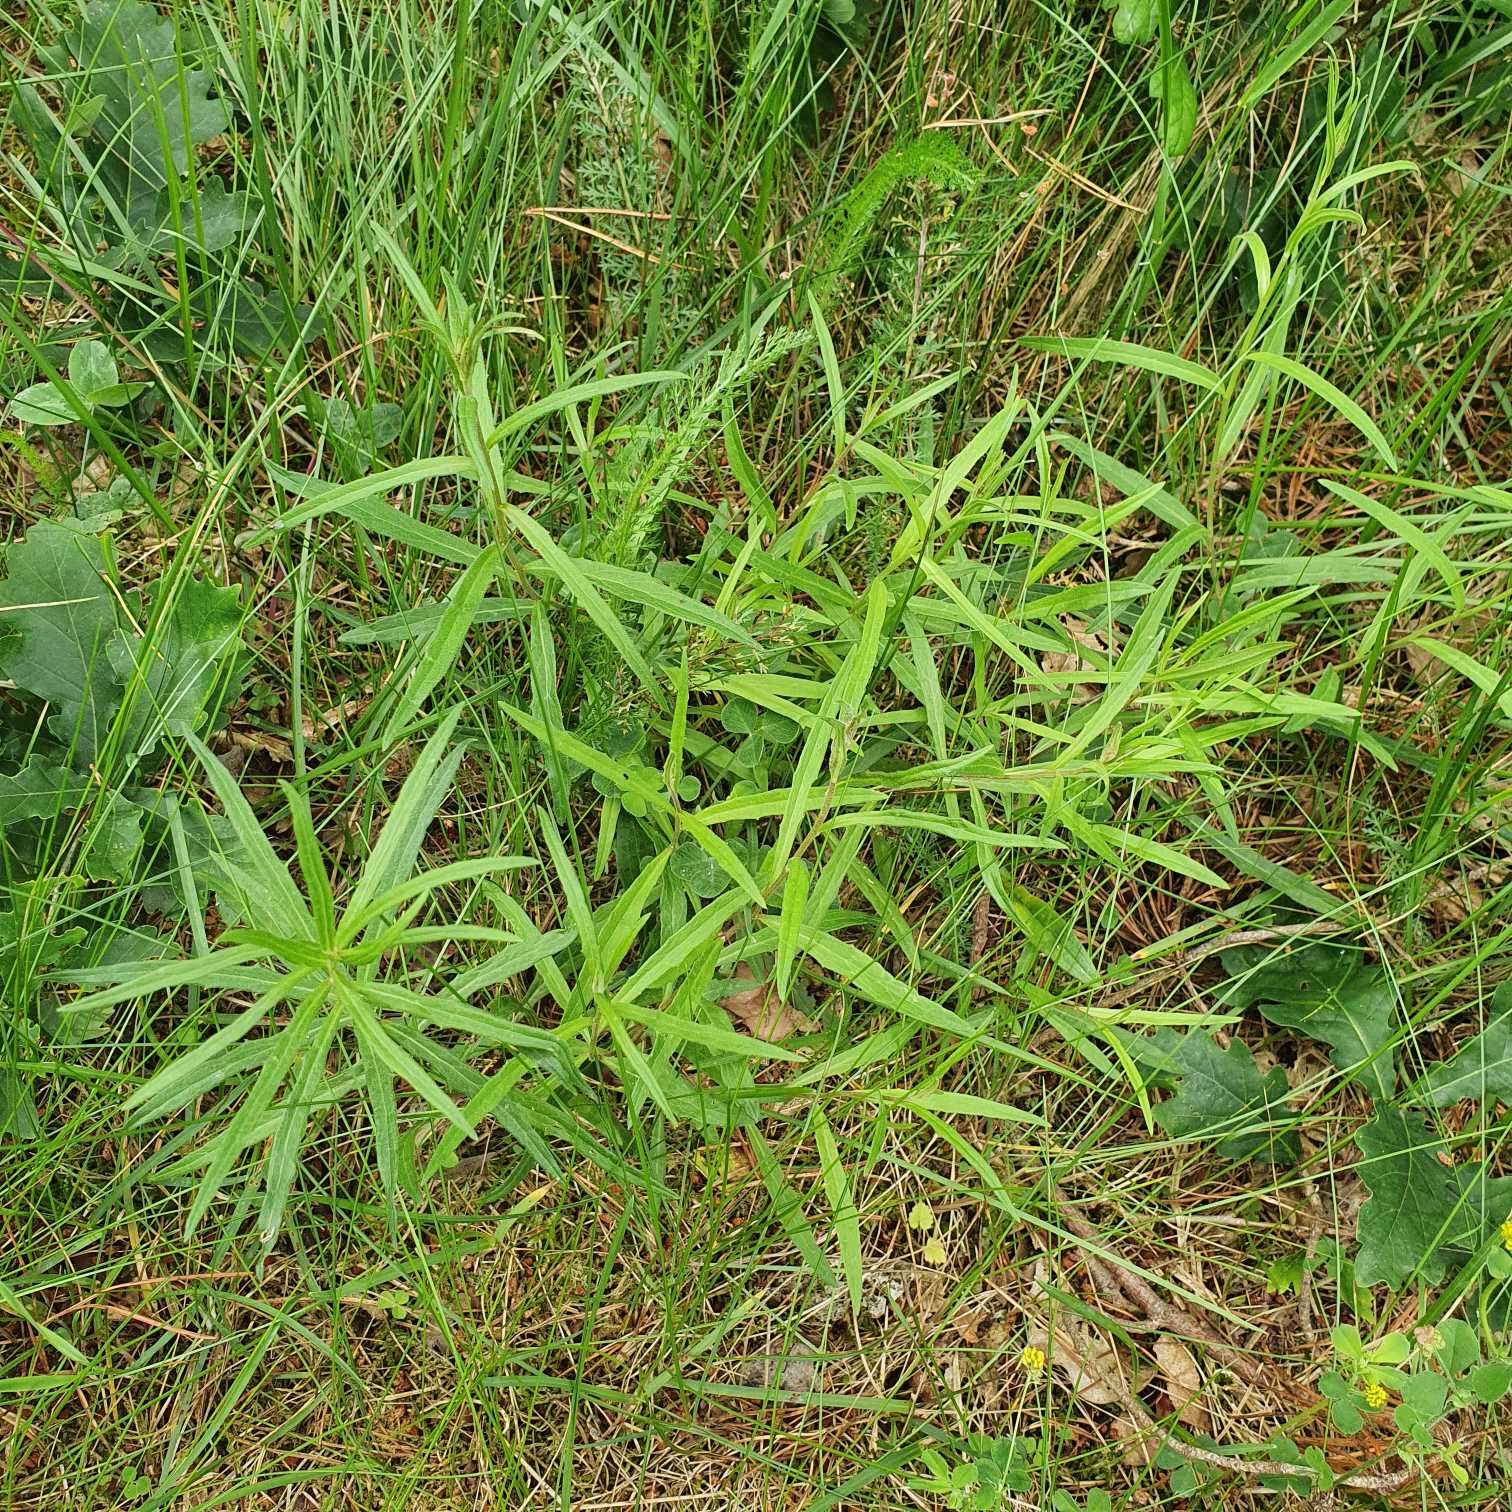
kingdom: Plantae
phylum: Tracheophyta
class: Magnoliopsida
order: Asterales
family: Asteraceae
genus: Hieracioides
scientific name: Hieracioides
